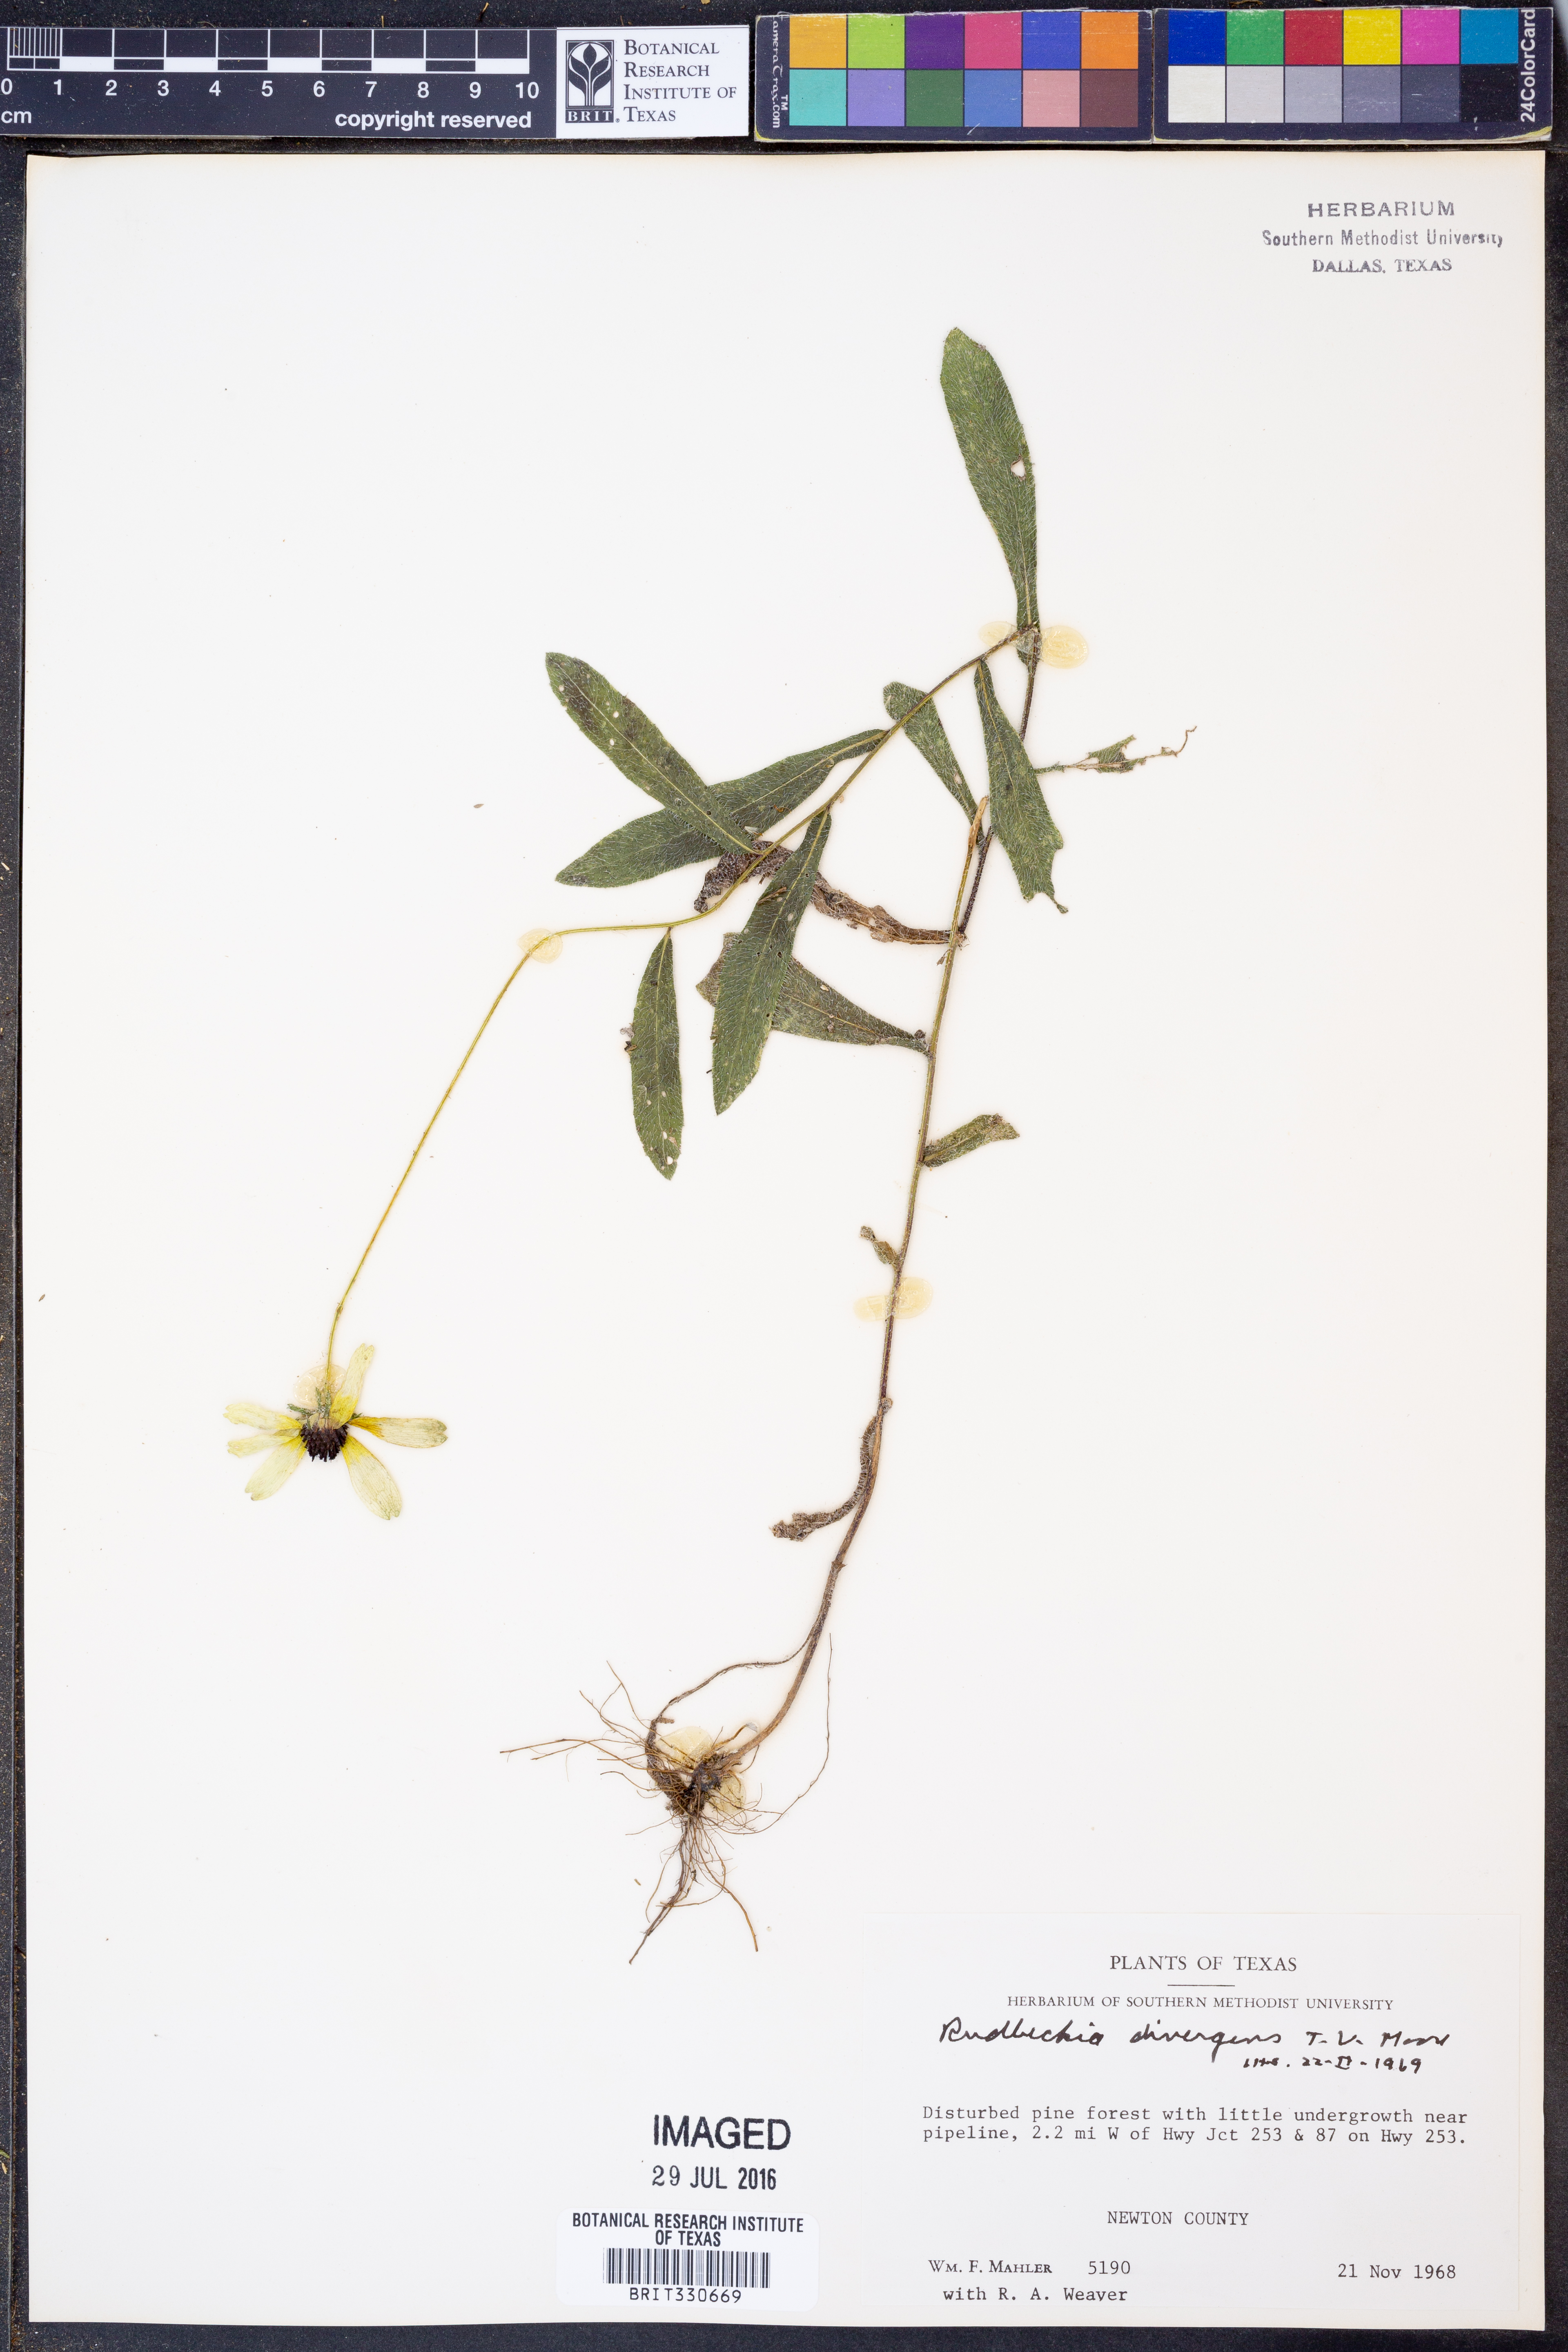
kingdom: Plantae
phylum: Tracheophyta
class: Magnoliopsida
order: Asterales
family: Asteraceae
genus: Rudbeckia
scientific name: Rudbeckia hirta
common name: Black-eyed-susan
